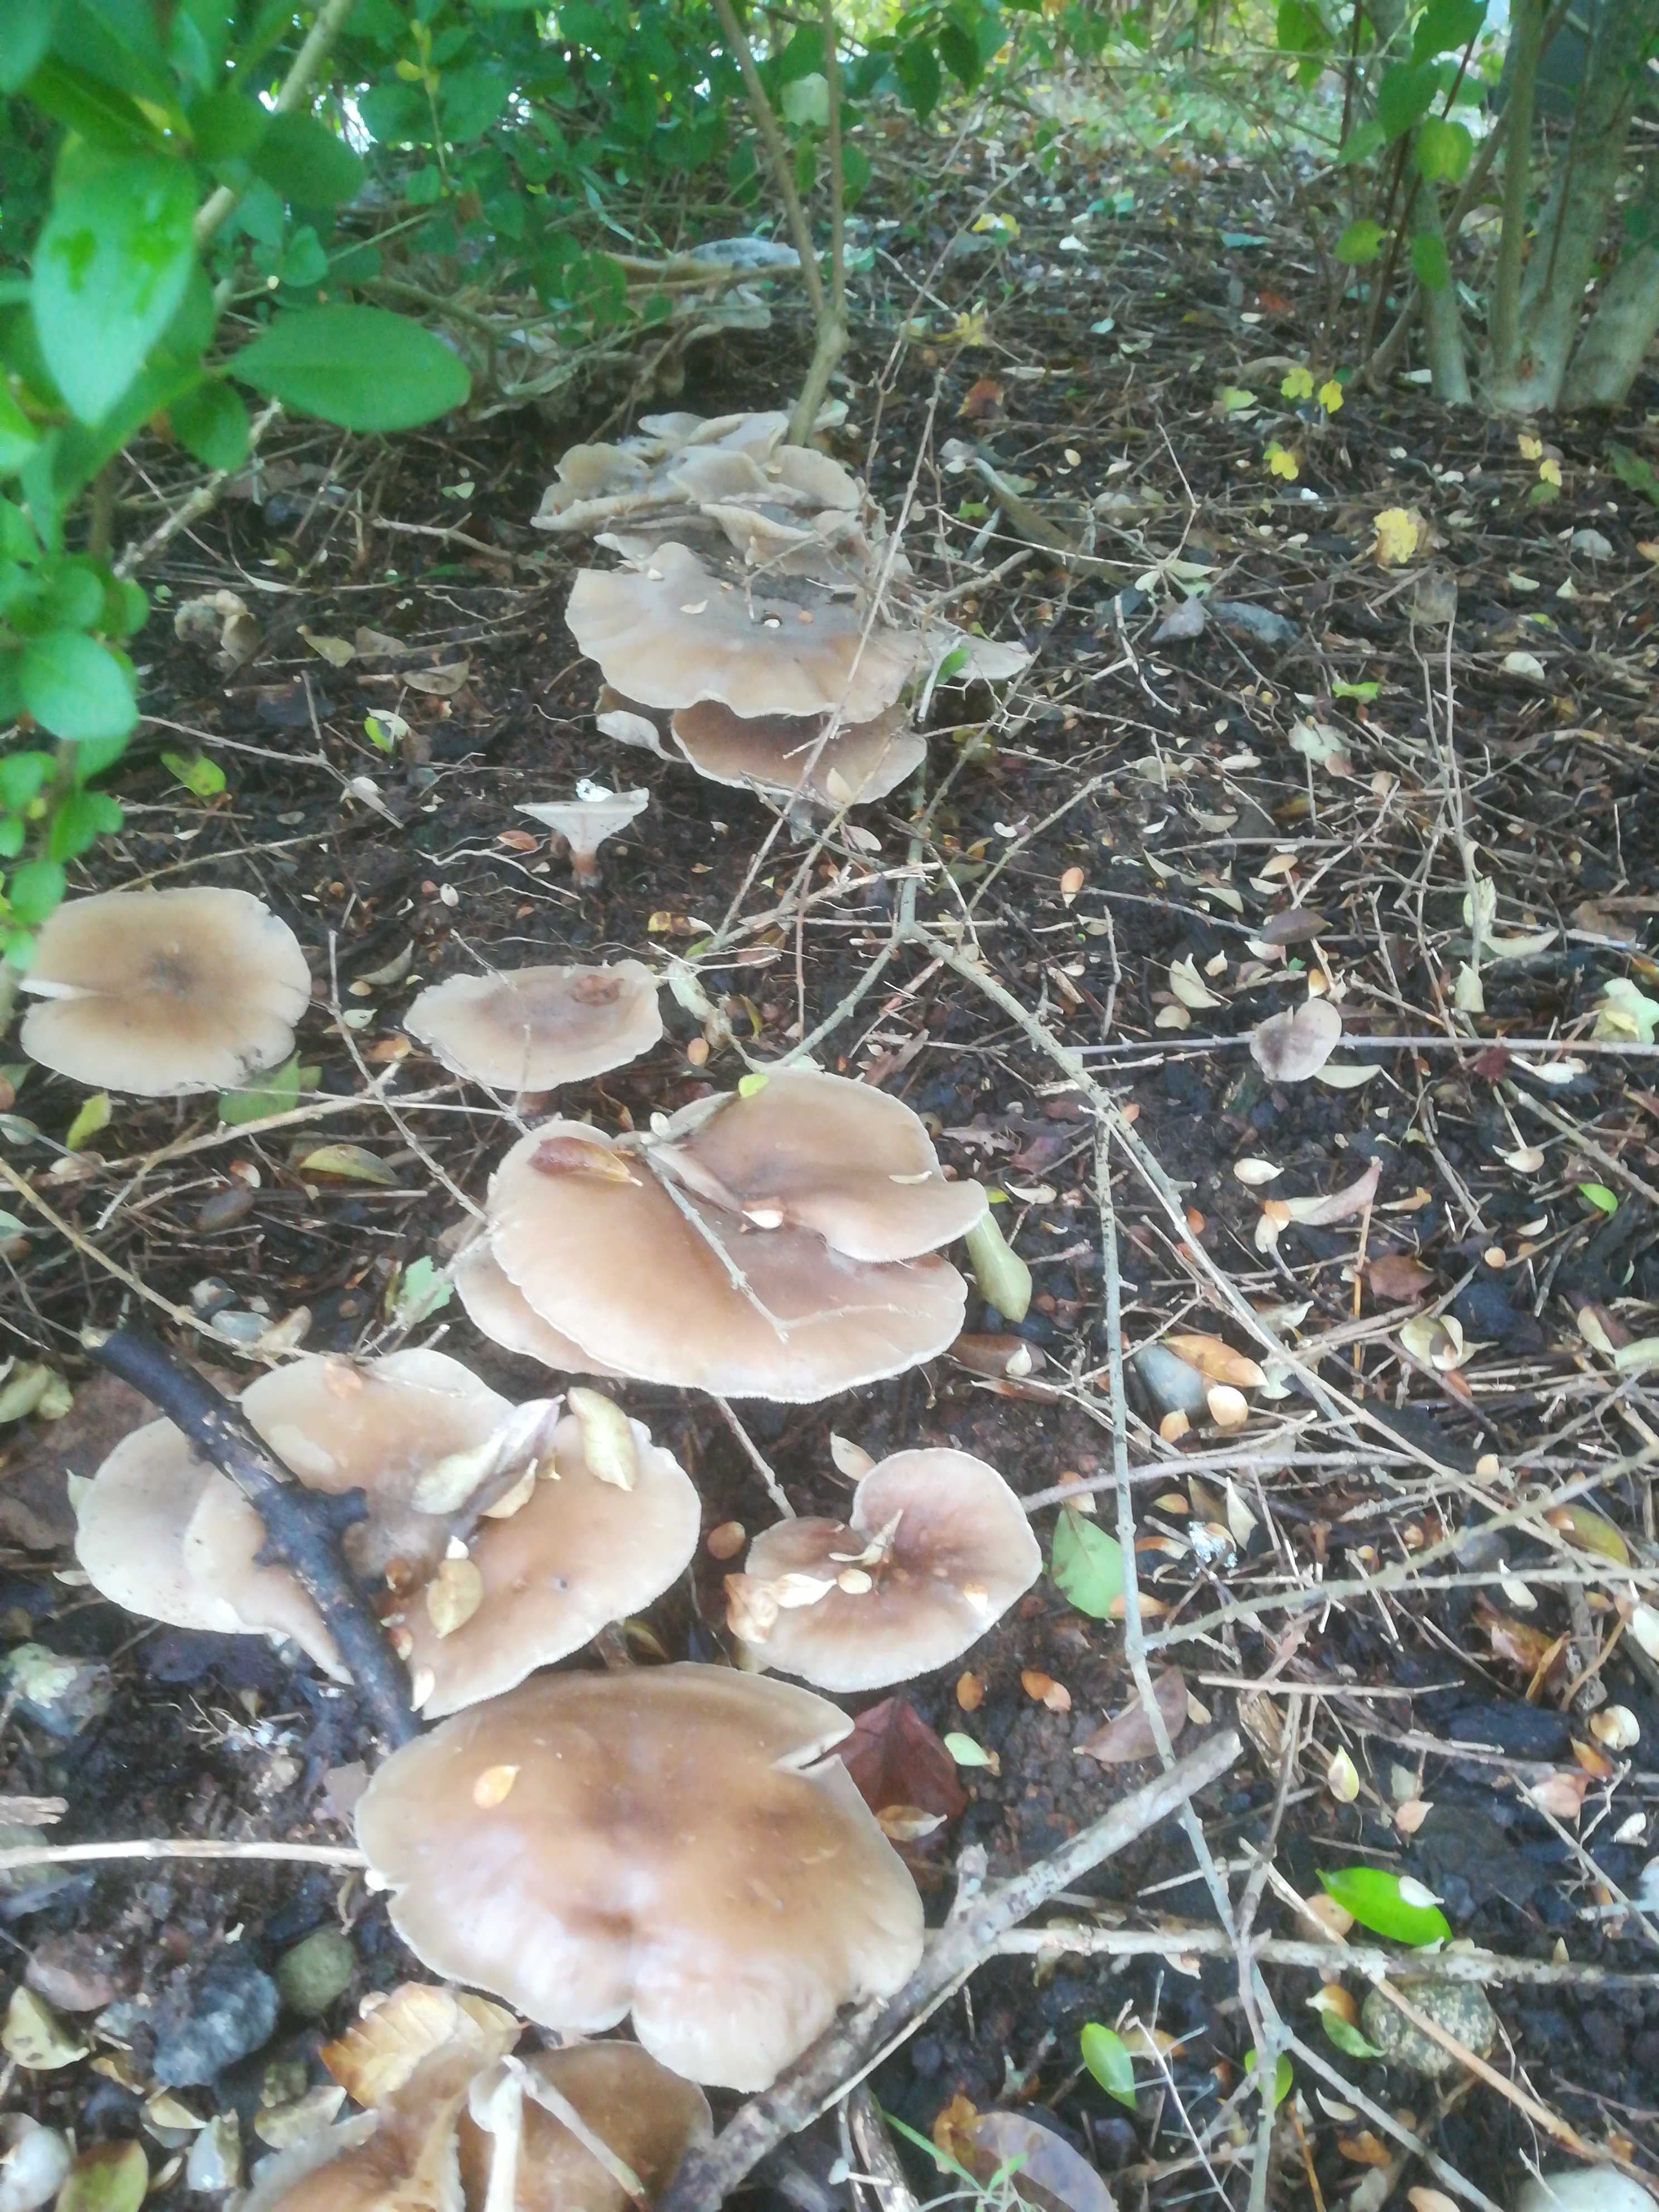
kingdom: Fungi
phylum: Basidiomycota
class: Agaricomycetes
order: Agaricales
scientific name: Agaricales
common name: champignonordenen
